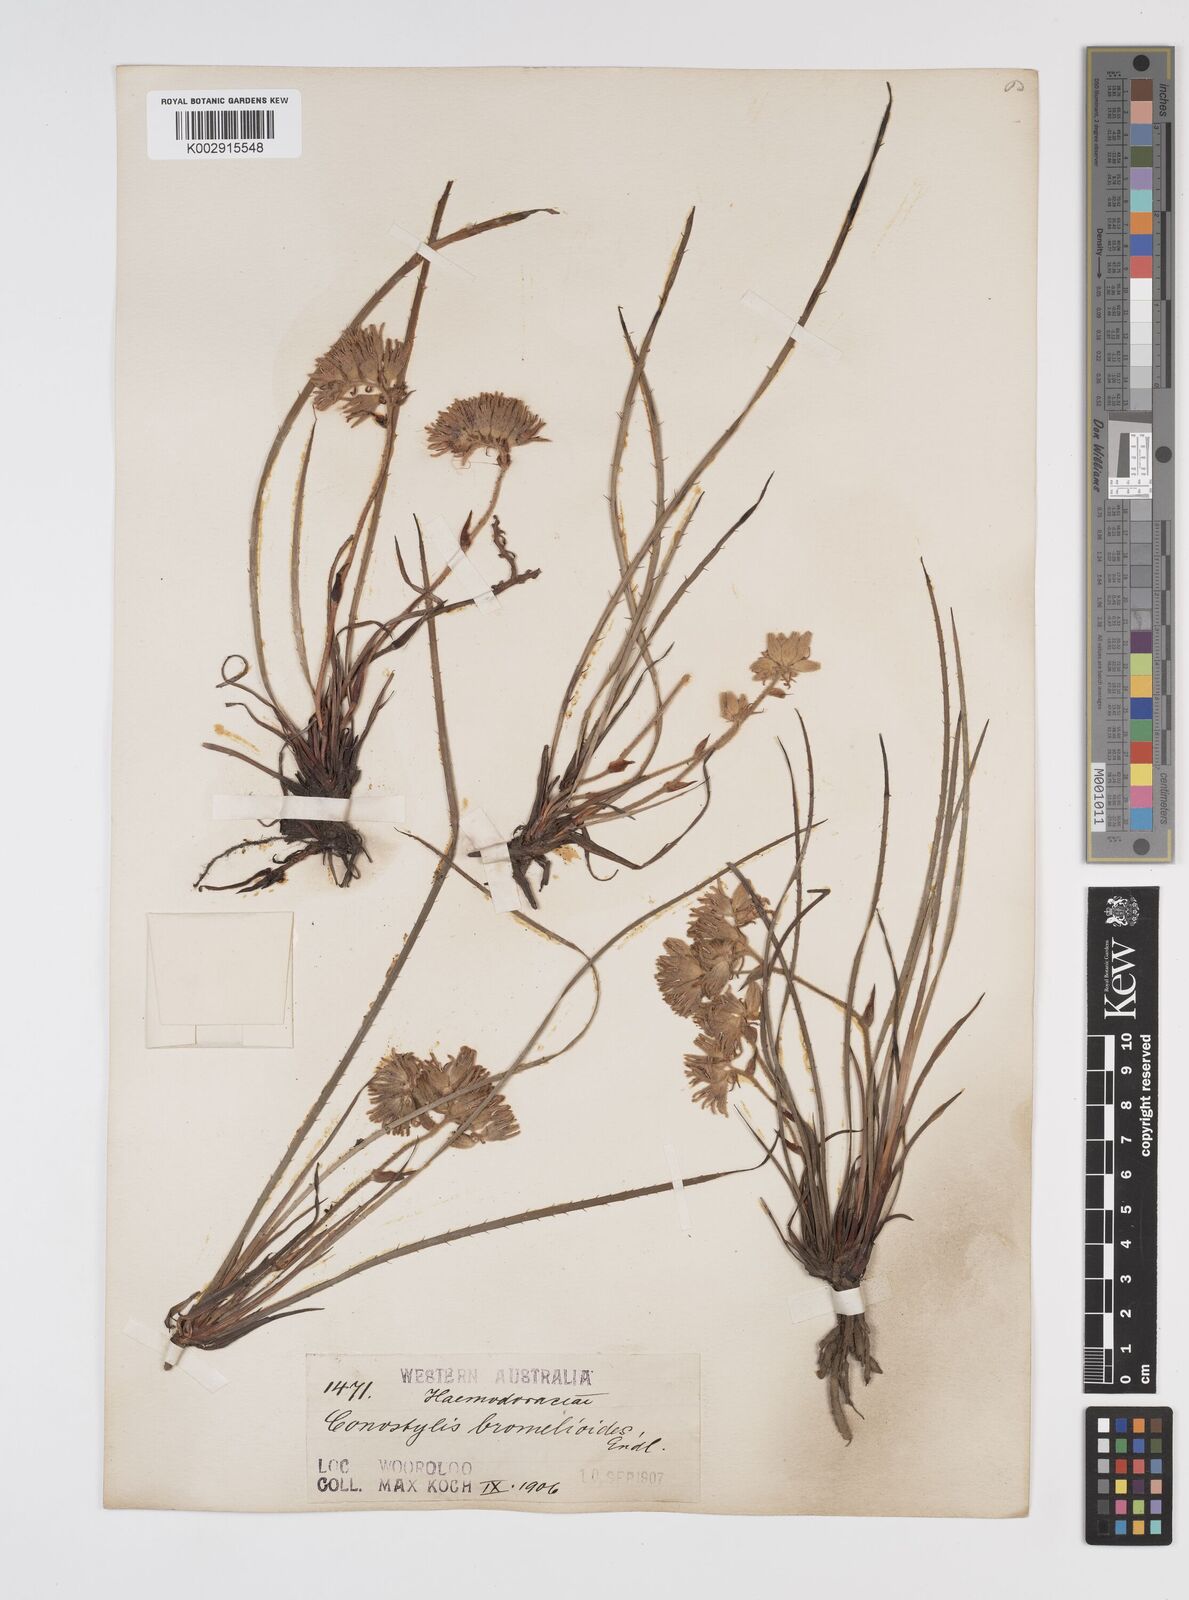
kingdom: Plantae
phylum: Tracheophyta
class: Liliopsida
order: Commelinales
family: Haemodoraceae
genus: Conostylis
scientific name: Conostylis aculeata
